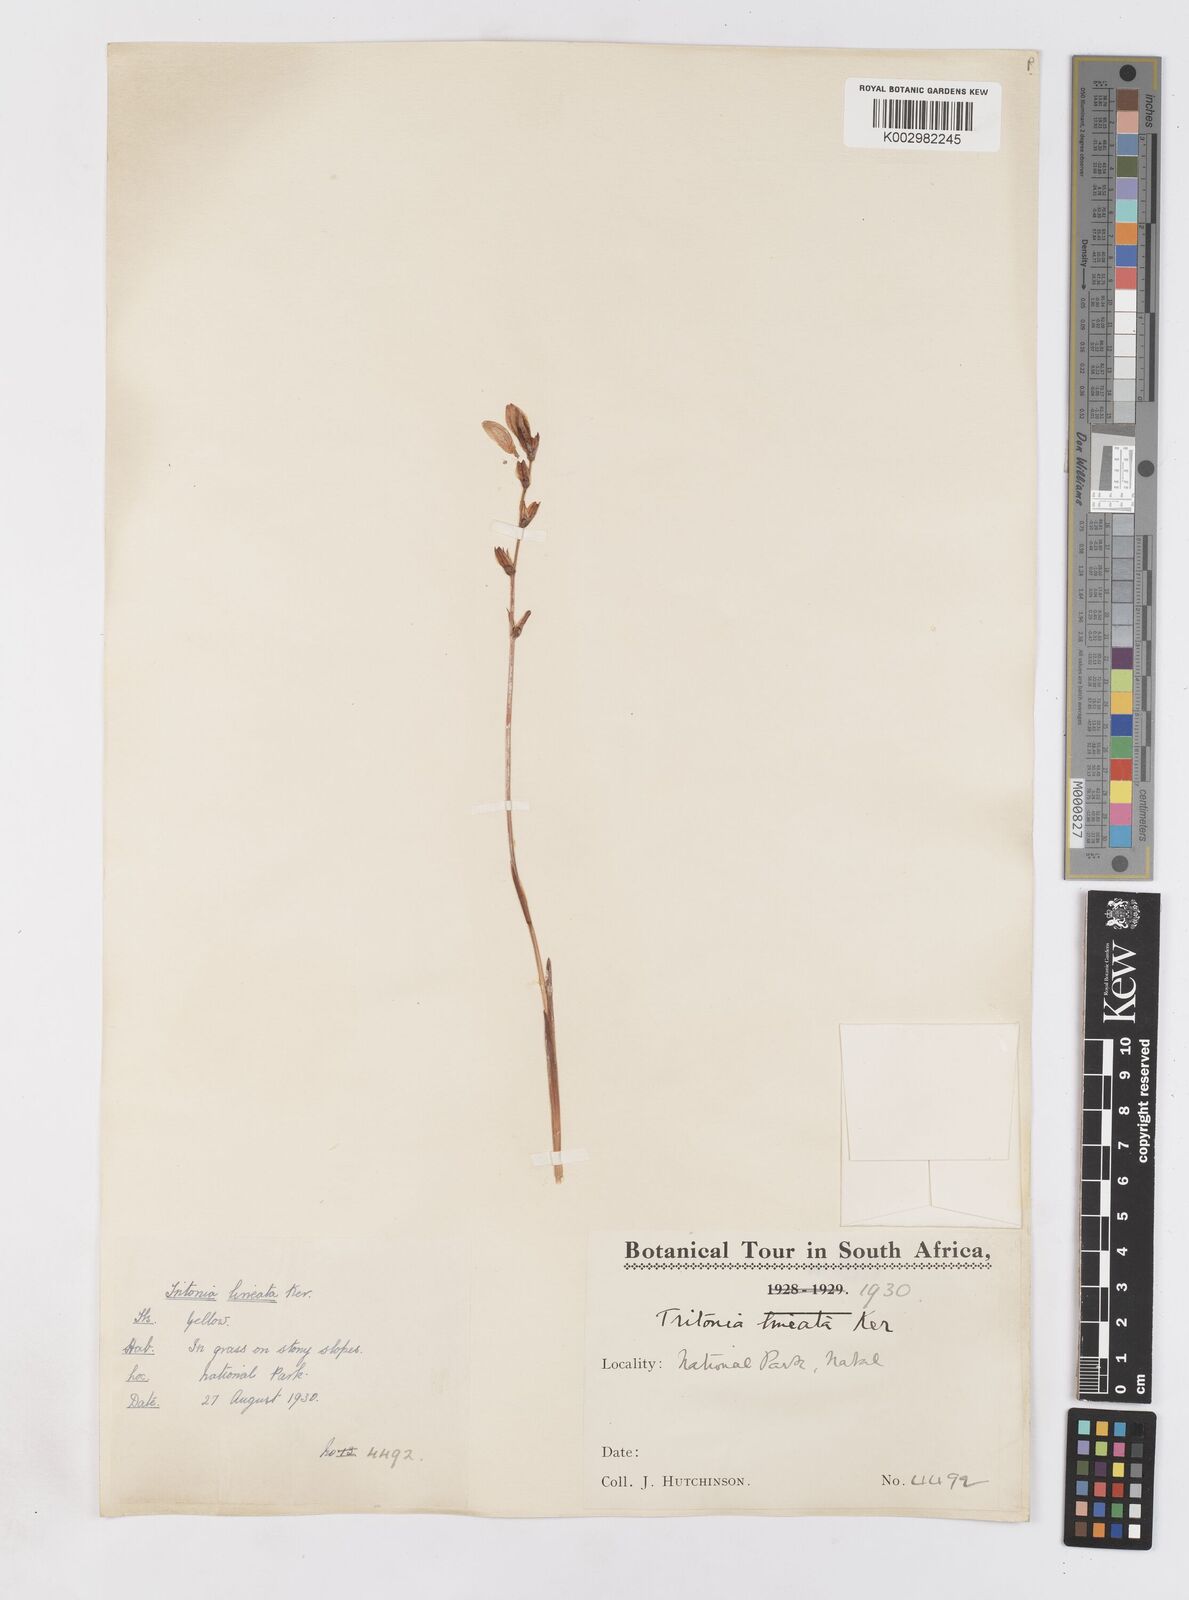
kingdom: Plantae
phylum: Tracheophyta
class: Liliopsida
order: Asparagales
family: Iridaceae
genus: Tritonia
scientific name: Tritonia gladiolaris
